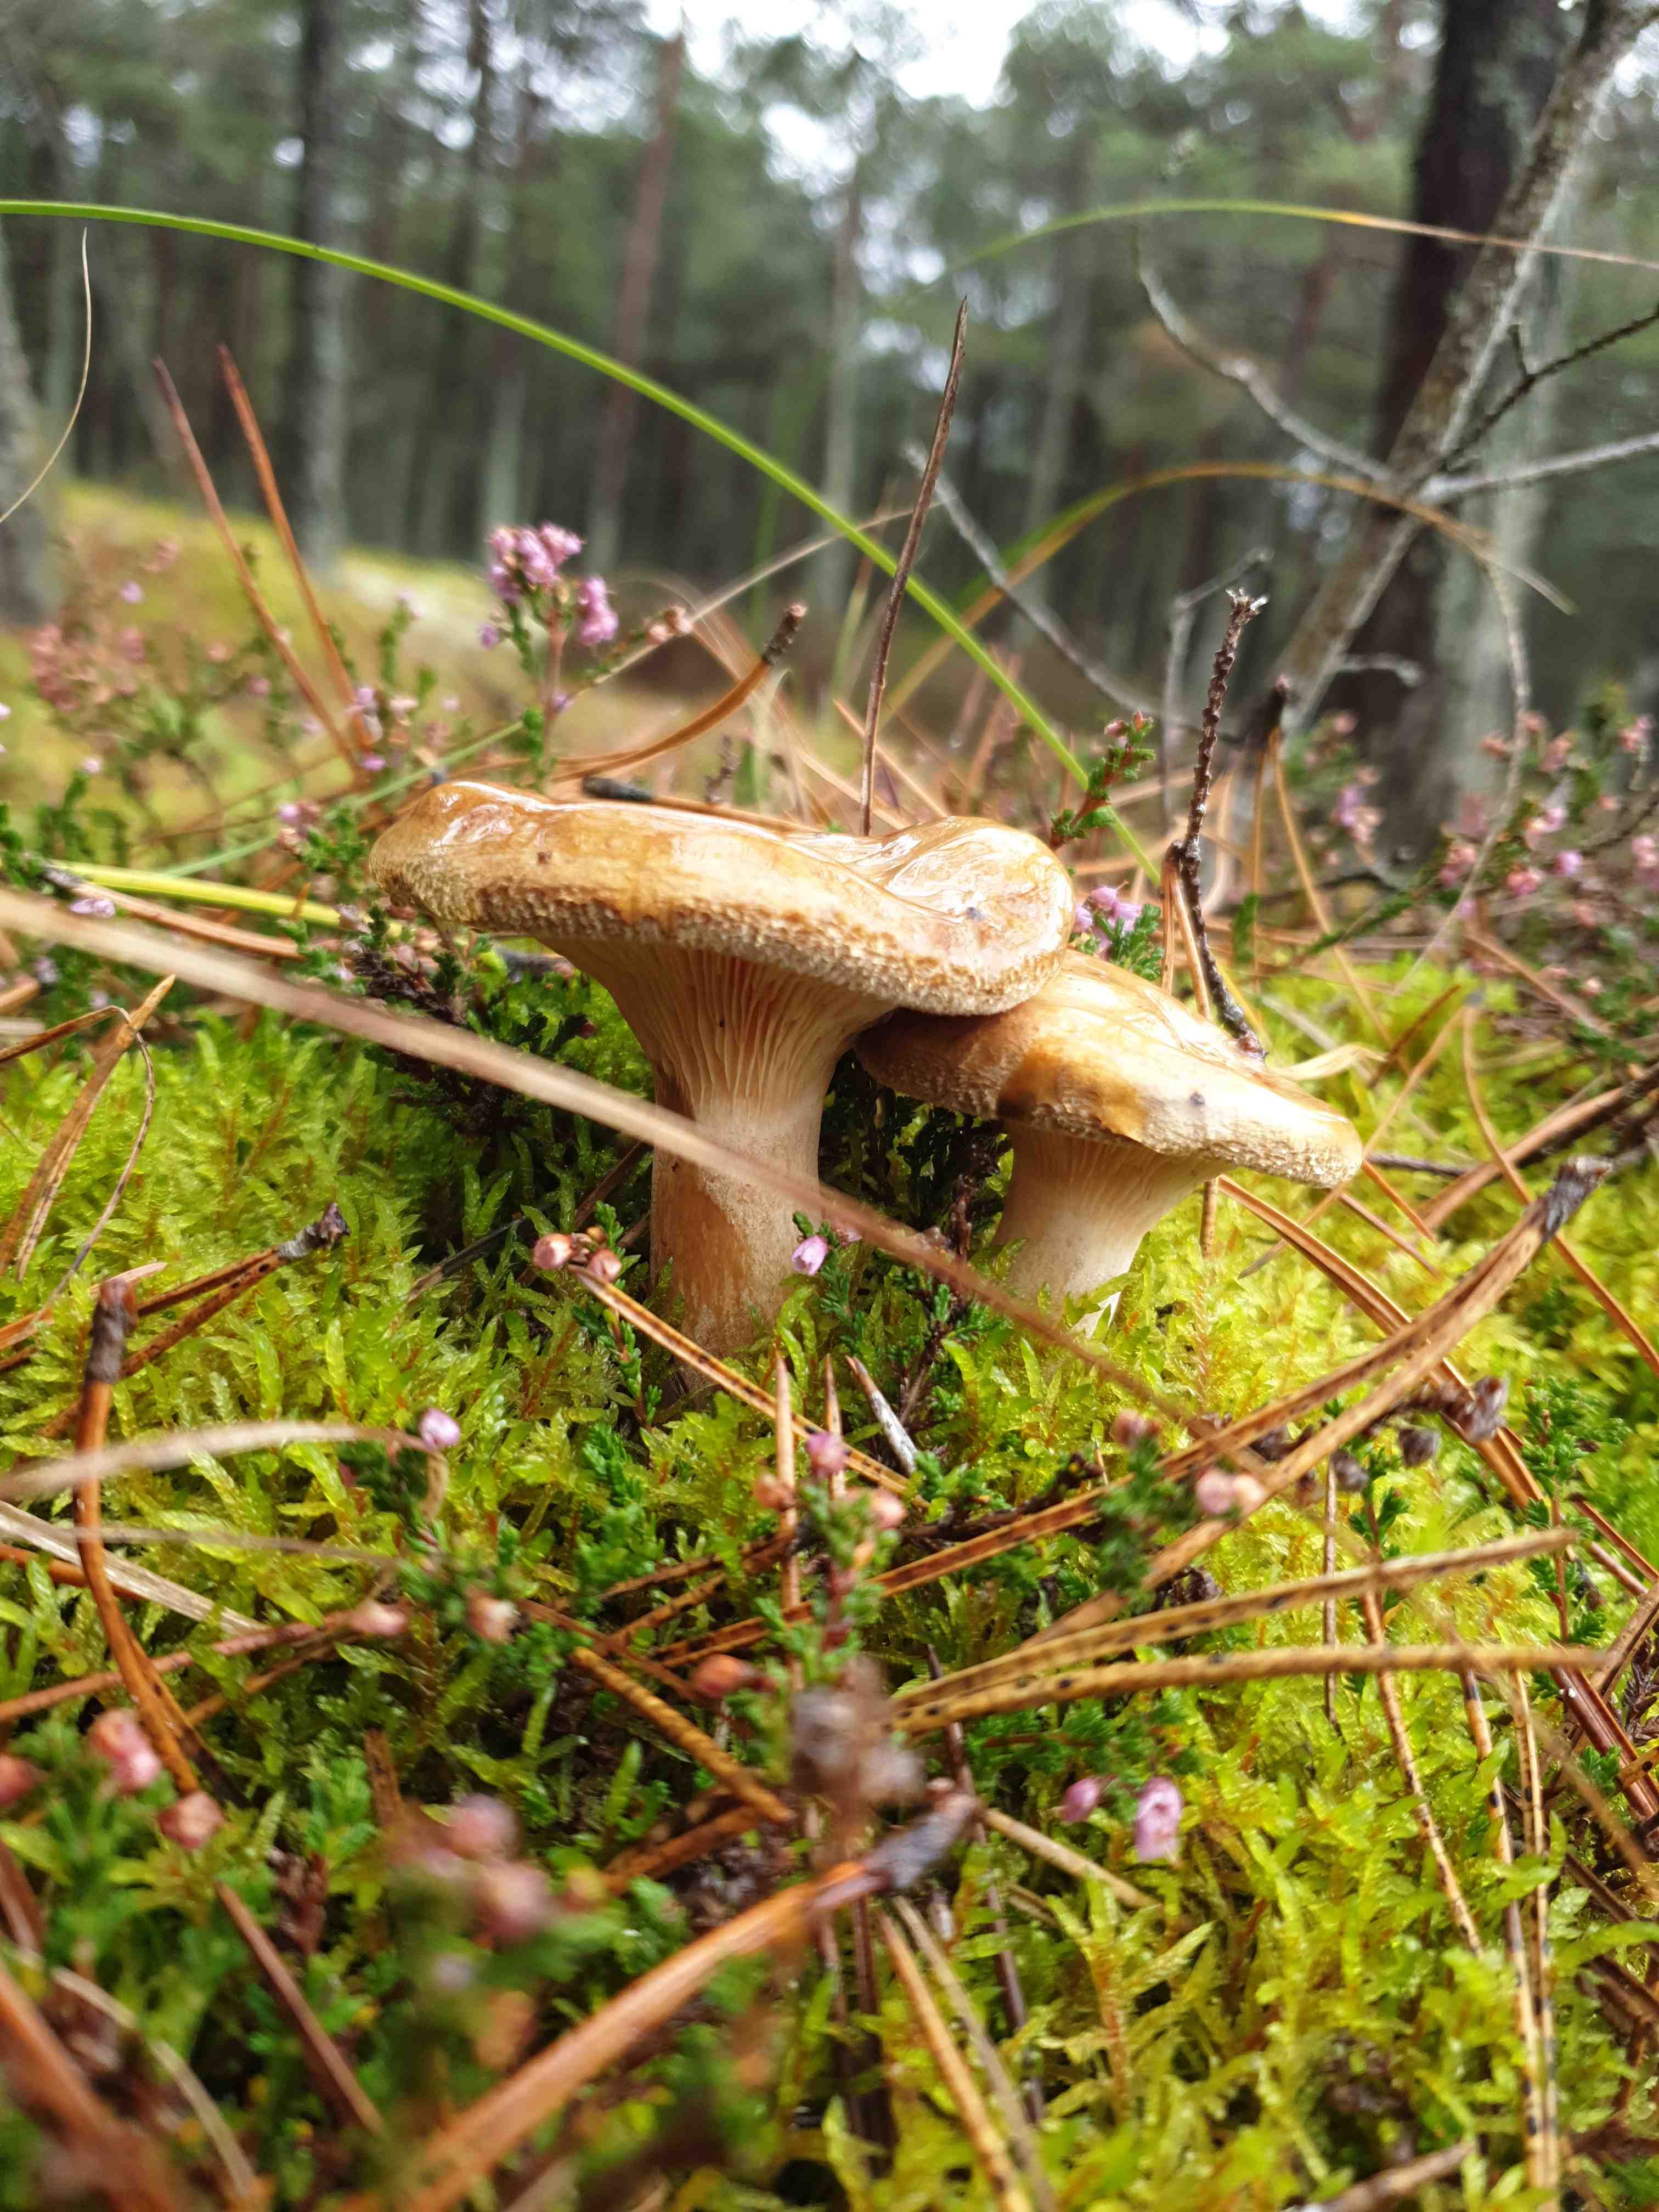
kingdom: Fungi
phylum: Basidiomycota
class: Agaricomycetes
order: Boletales
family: Paxillaceae
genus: Paxillus
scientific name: Paxillus involutus
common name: almindelig netbladhat
